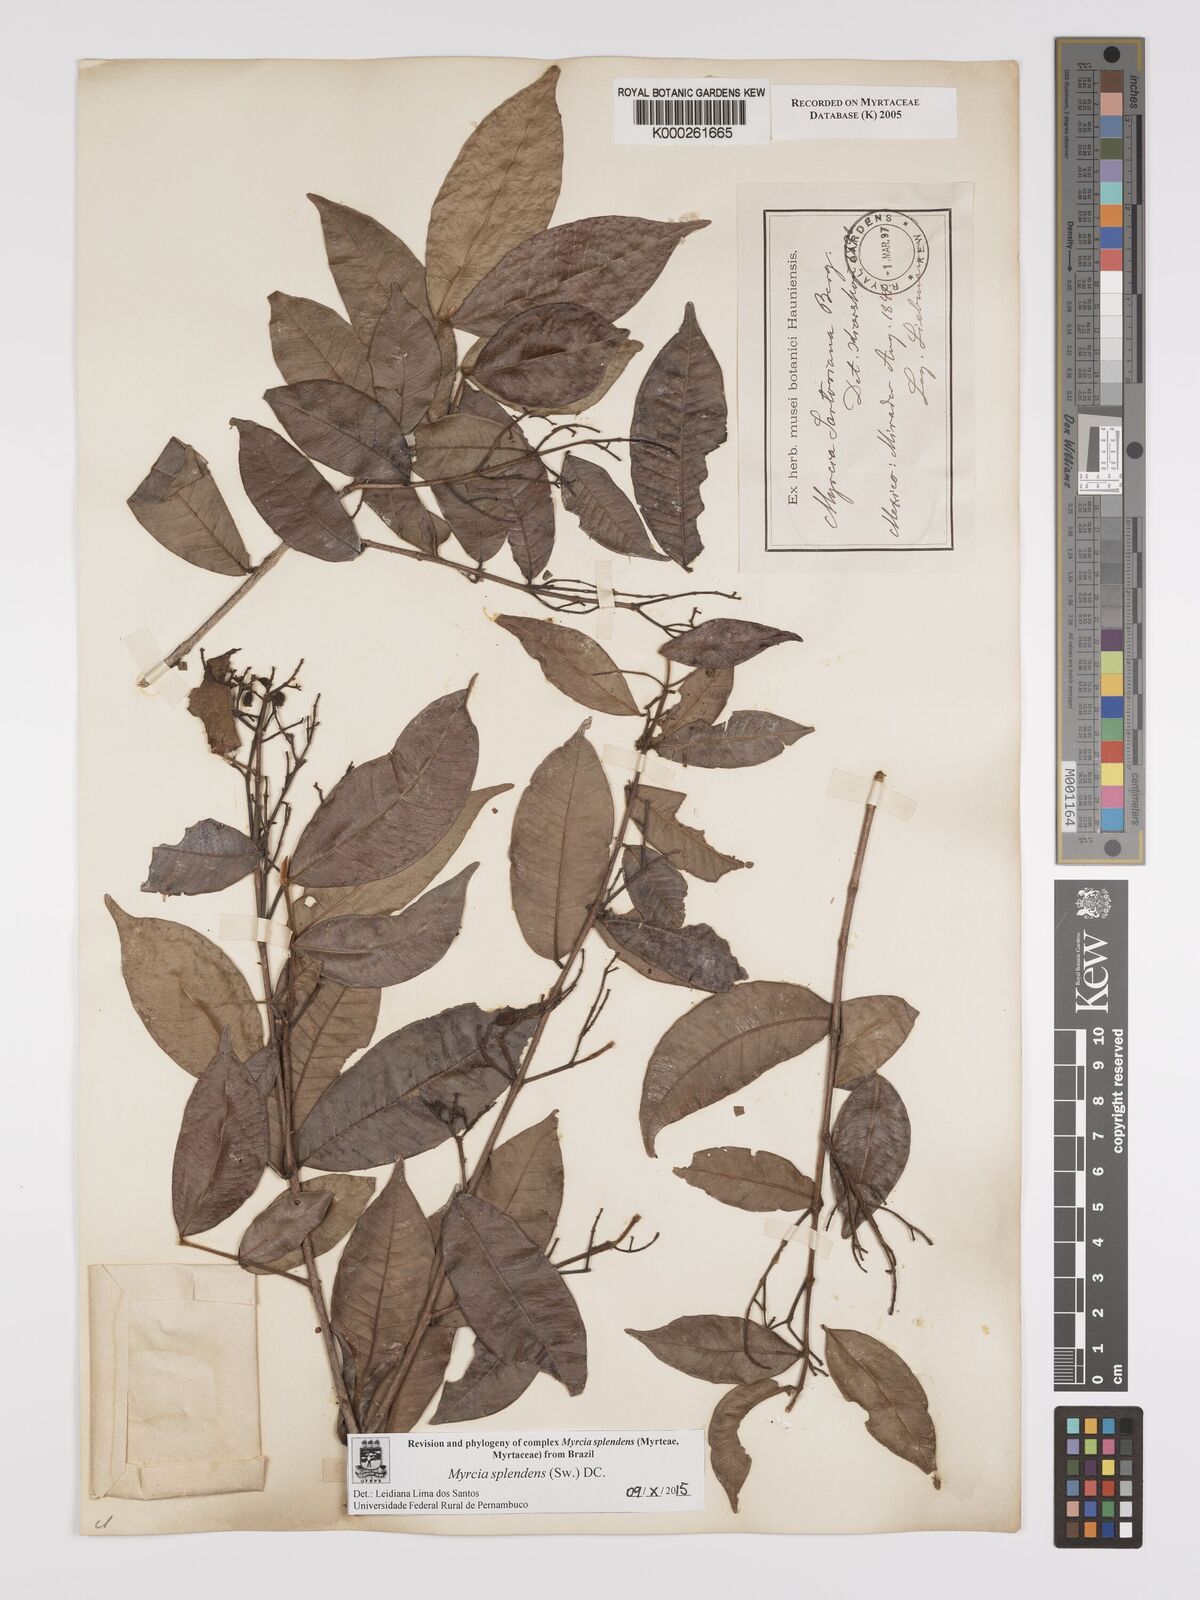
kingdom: Plantae
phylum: Tracheophyta
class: Magnoliopsida
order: Myrtales
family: Myrtaceae
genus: Myrcia
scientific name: Myrcia splendens
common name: Surinam cherry
